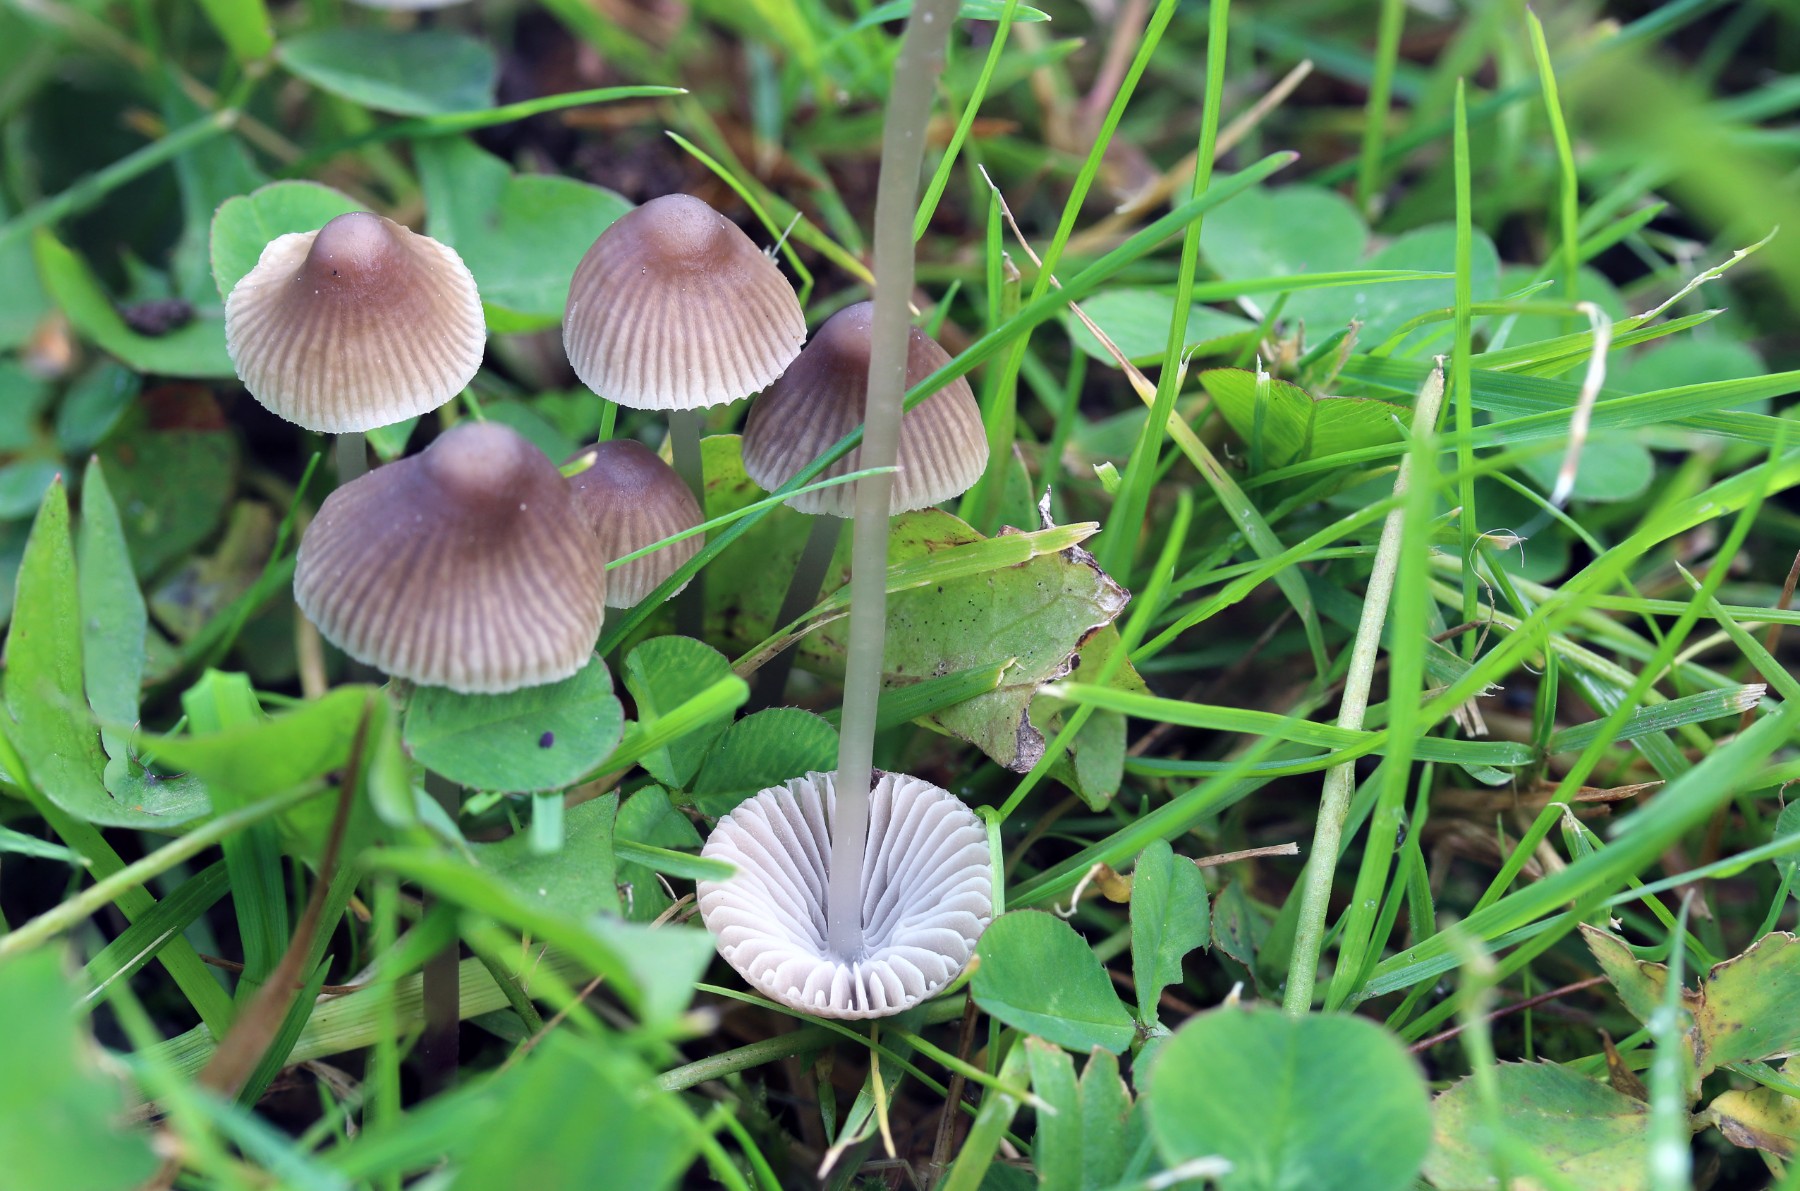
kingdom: Fungi
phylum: Basidiomycota
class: Agaricomycetes
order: Agaricales
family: Mycenaceae
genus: Mycena
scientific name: Mycena aetites
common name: plæne-huesvamp
